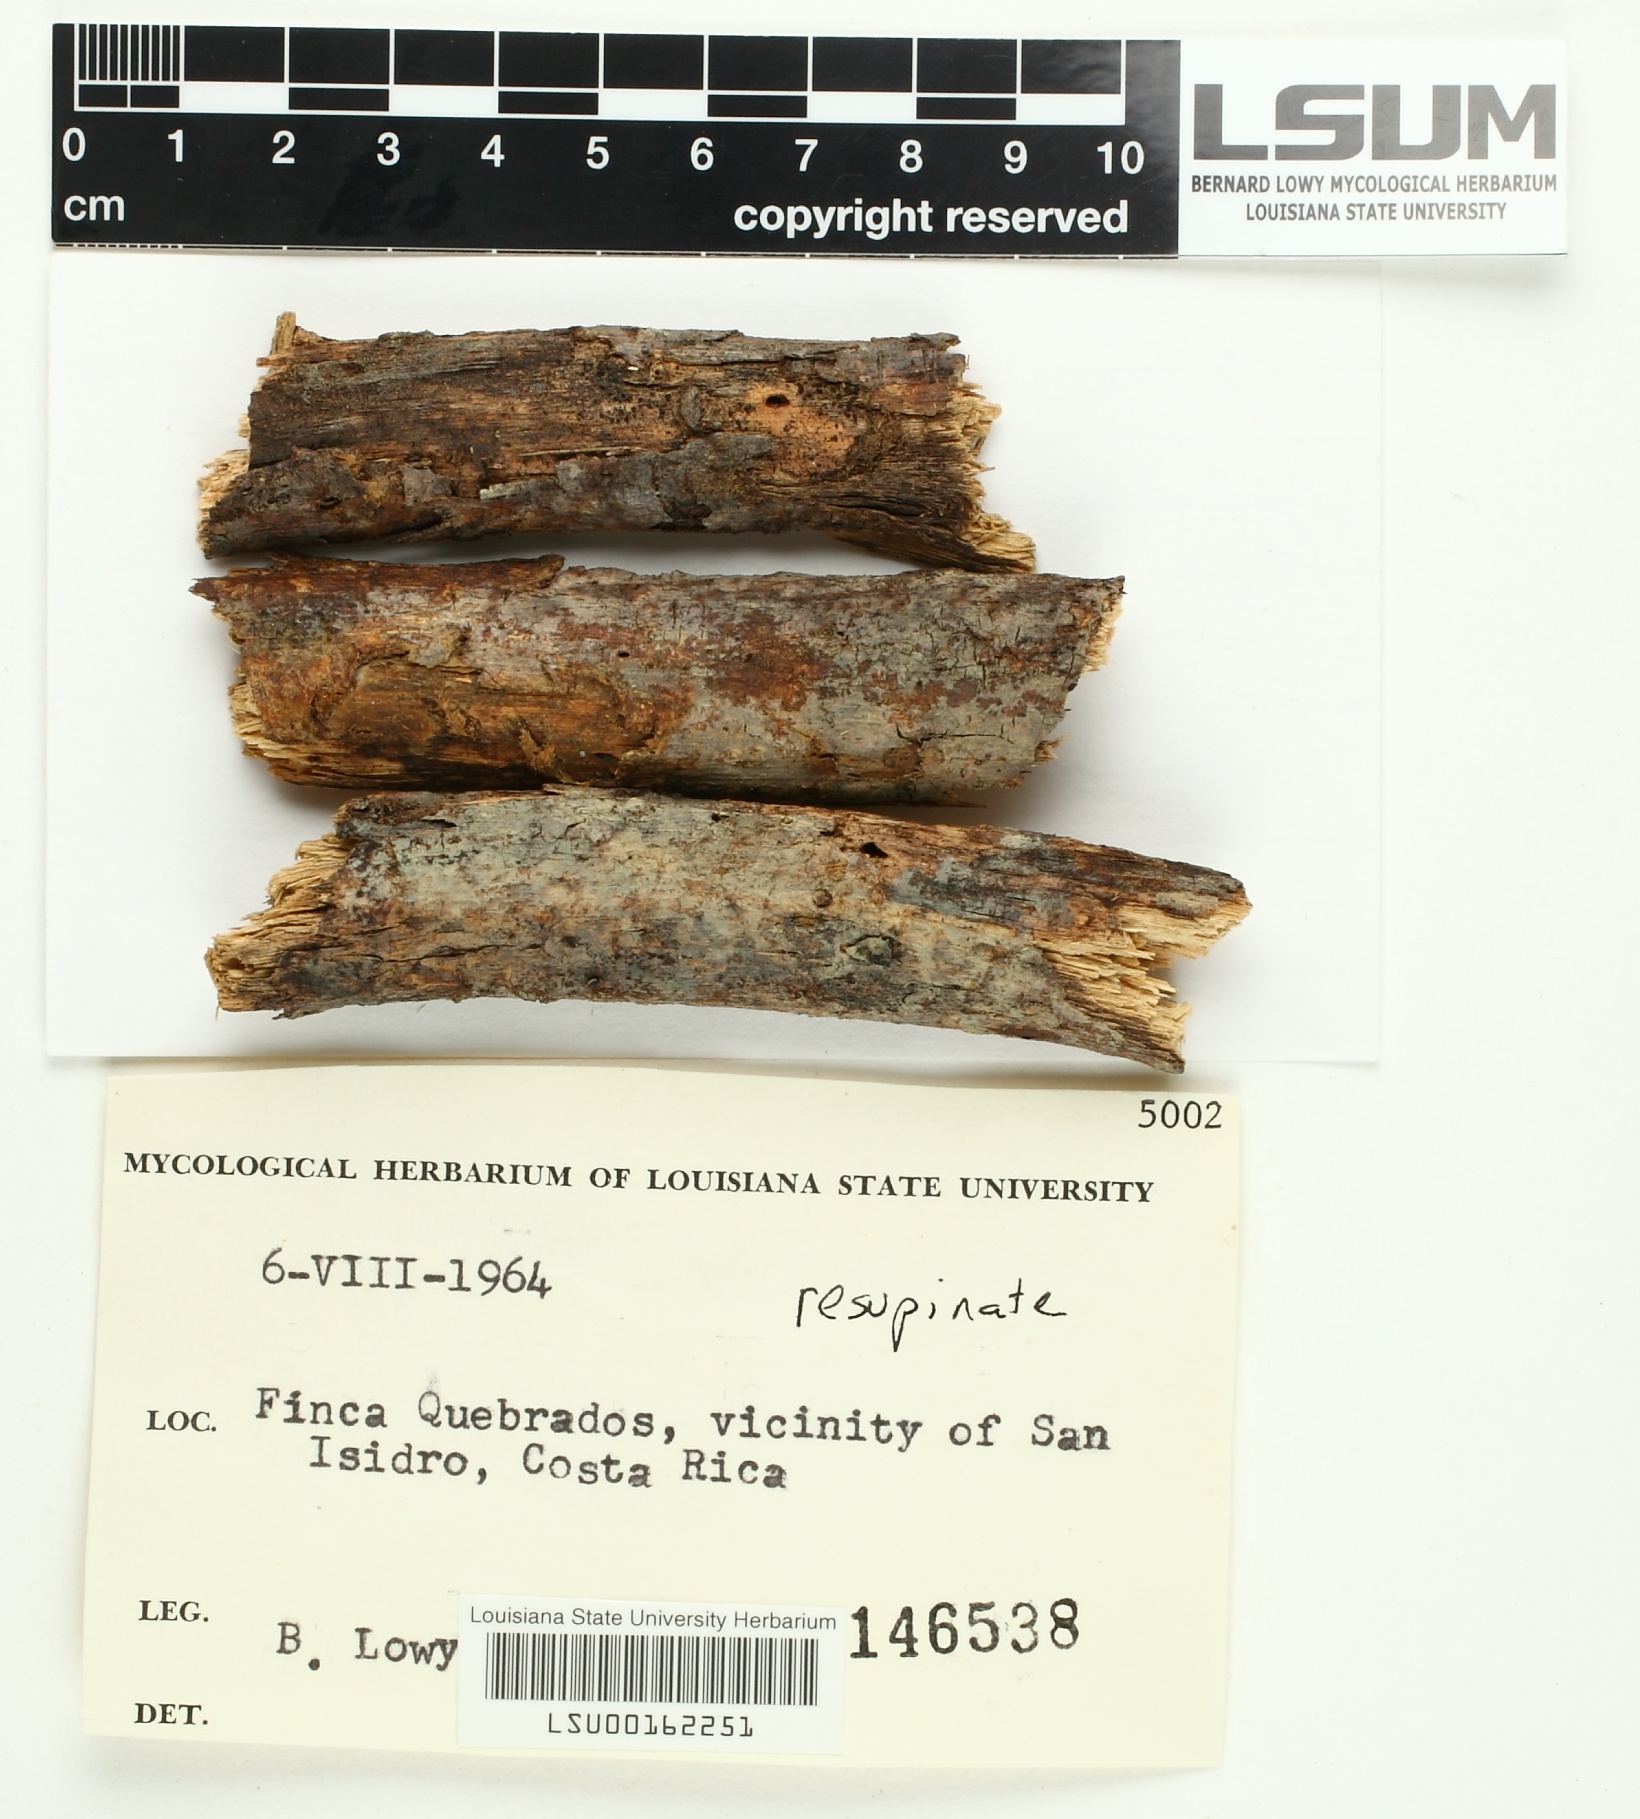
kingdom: Fungi
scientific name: Fungi
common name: Fungi
